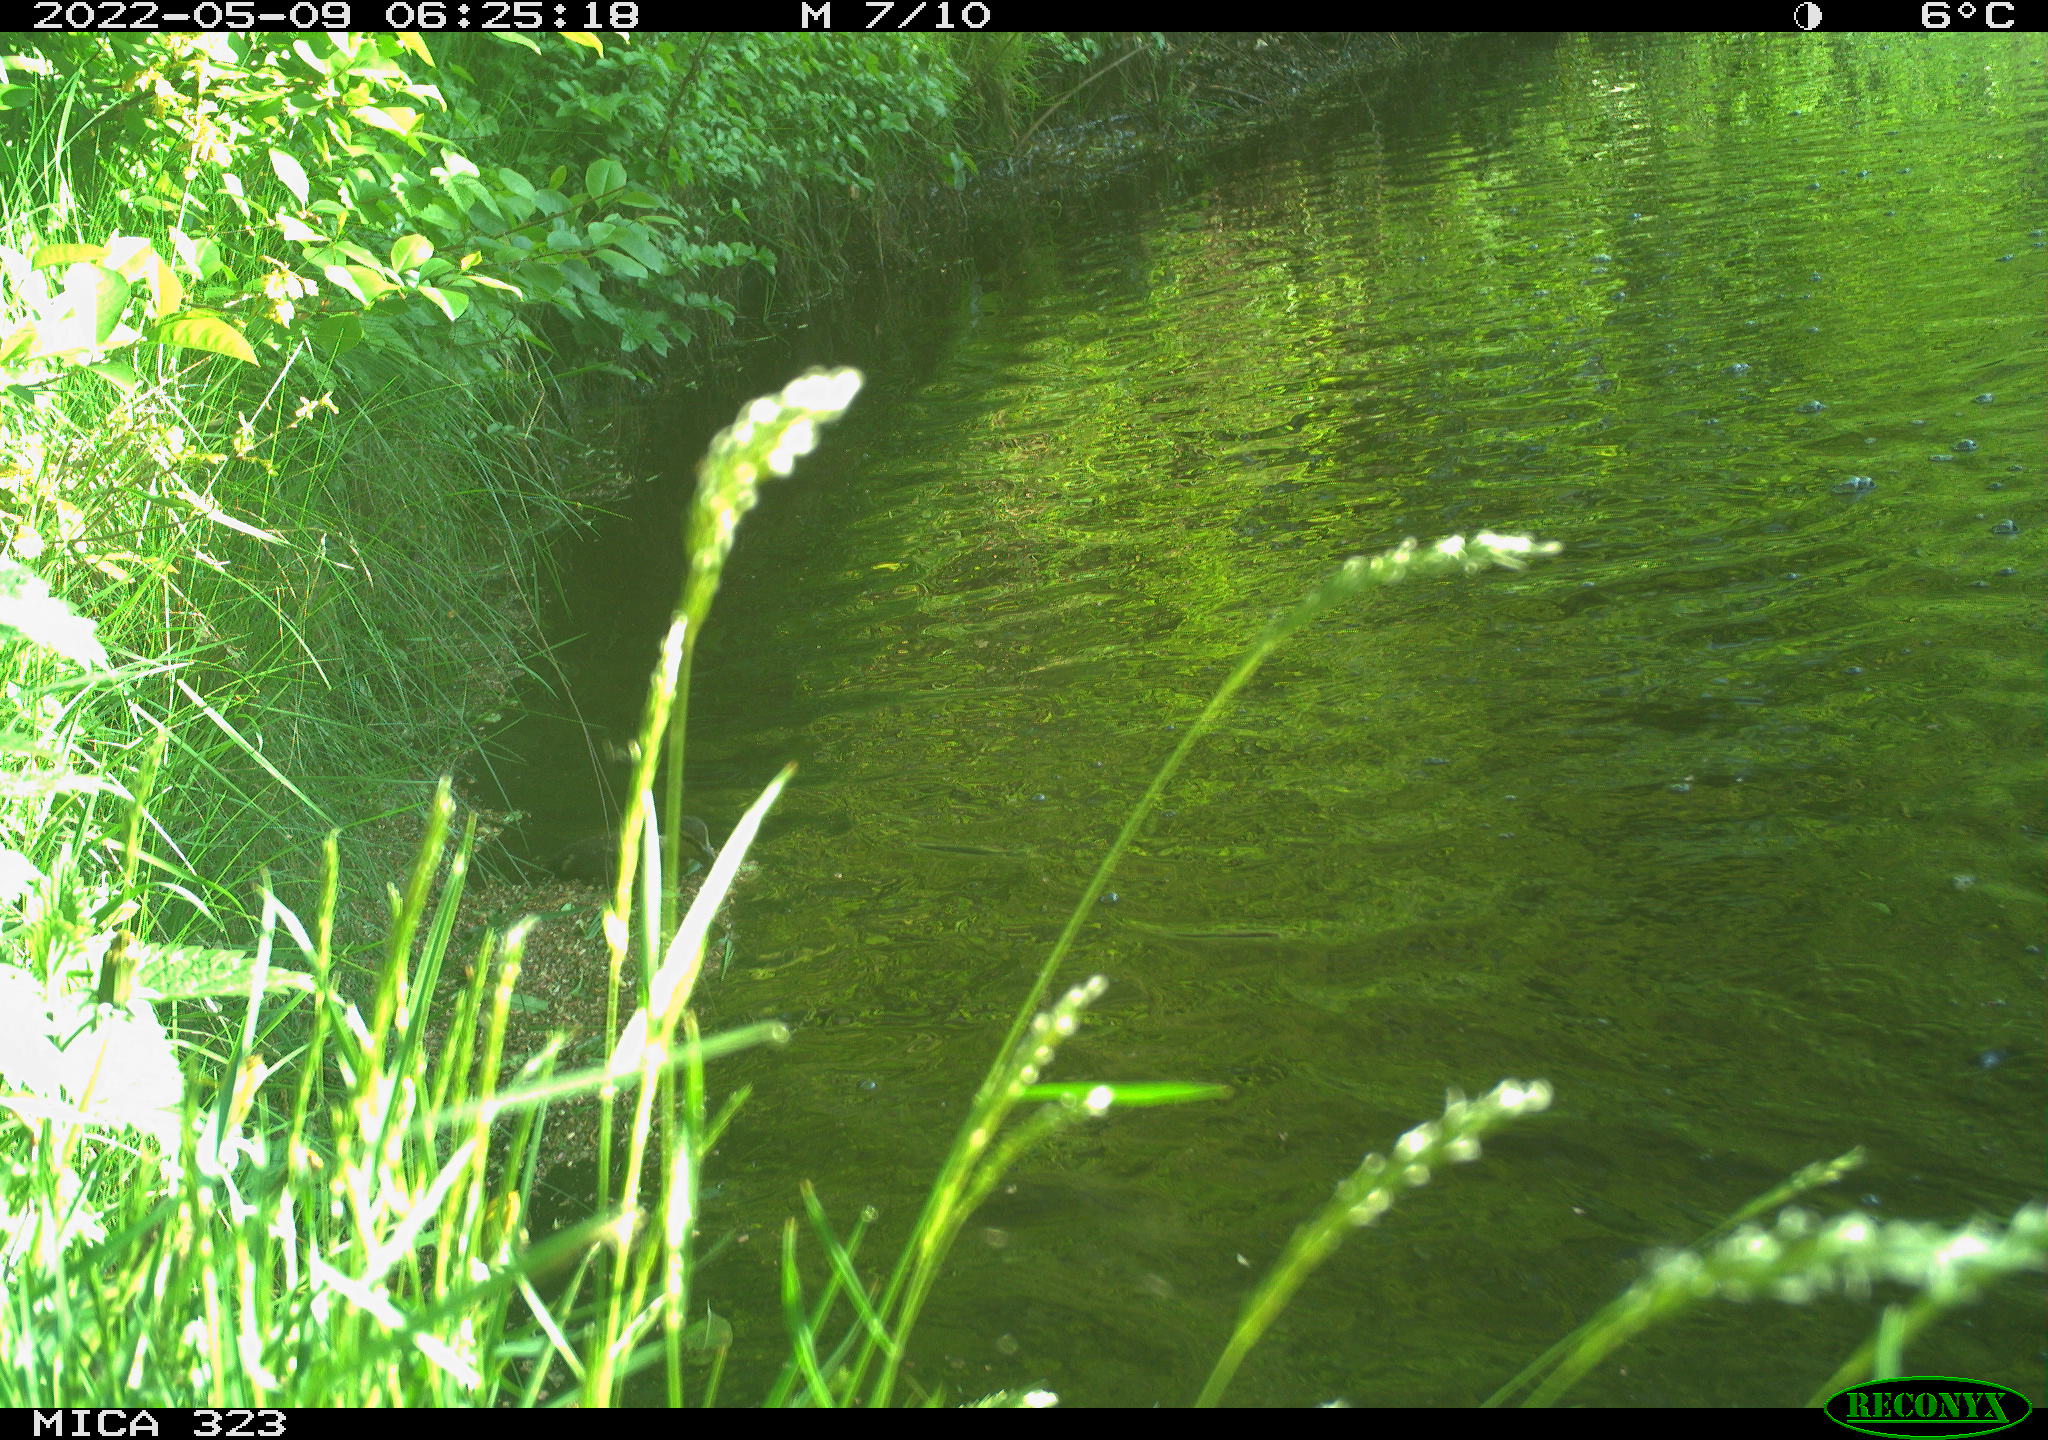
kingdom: Animalia
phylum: Chordata
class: Aves
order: Anseriformes
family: Anatidae
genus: Anas
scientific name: Anas
